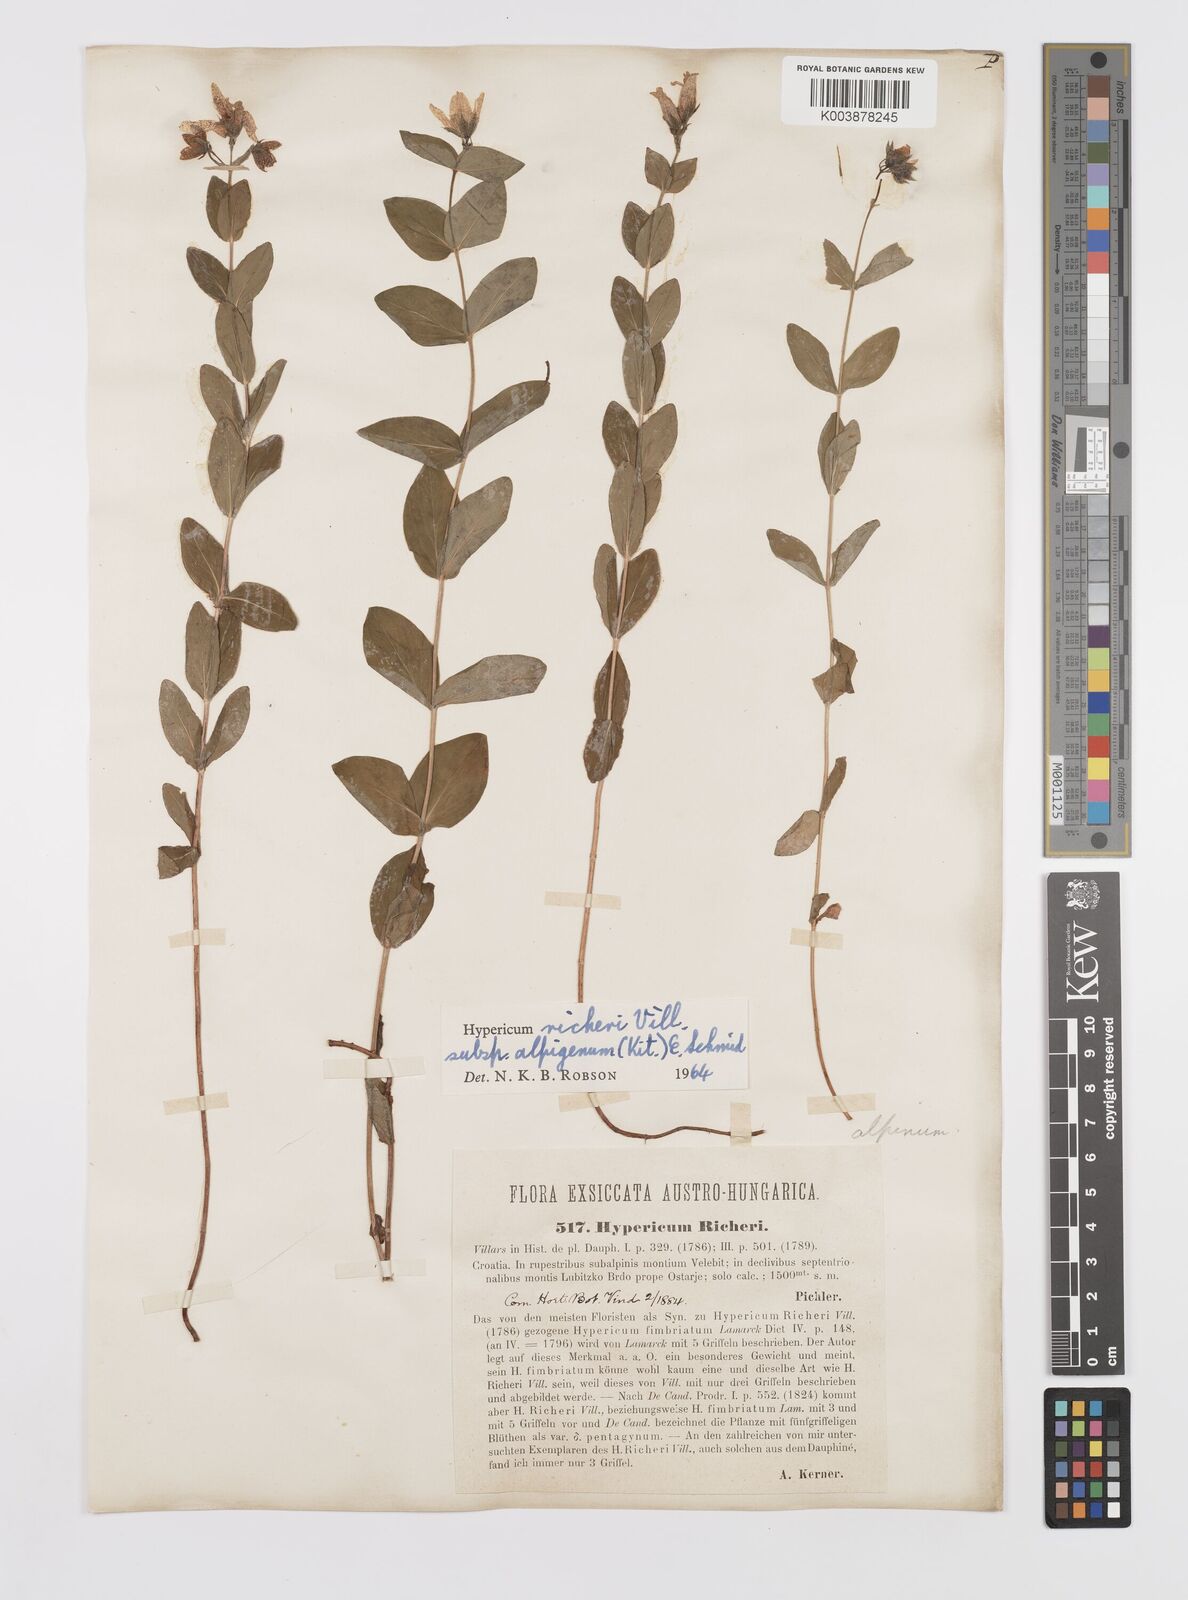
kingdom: Plantae
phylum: Tracheophyta
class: Magnoliopsida
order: Malpighiales
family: Hypericaceae
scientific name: Hypericaceae
